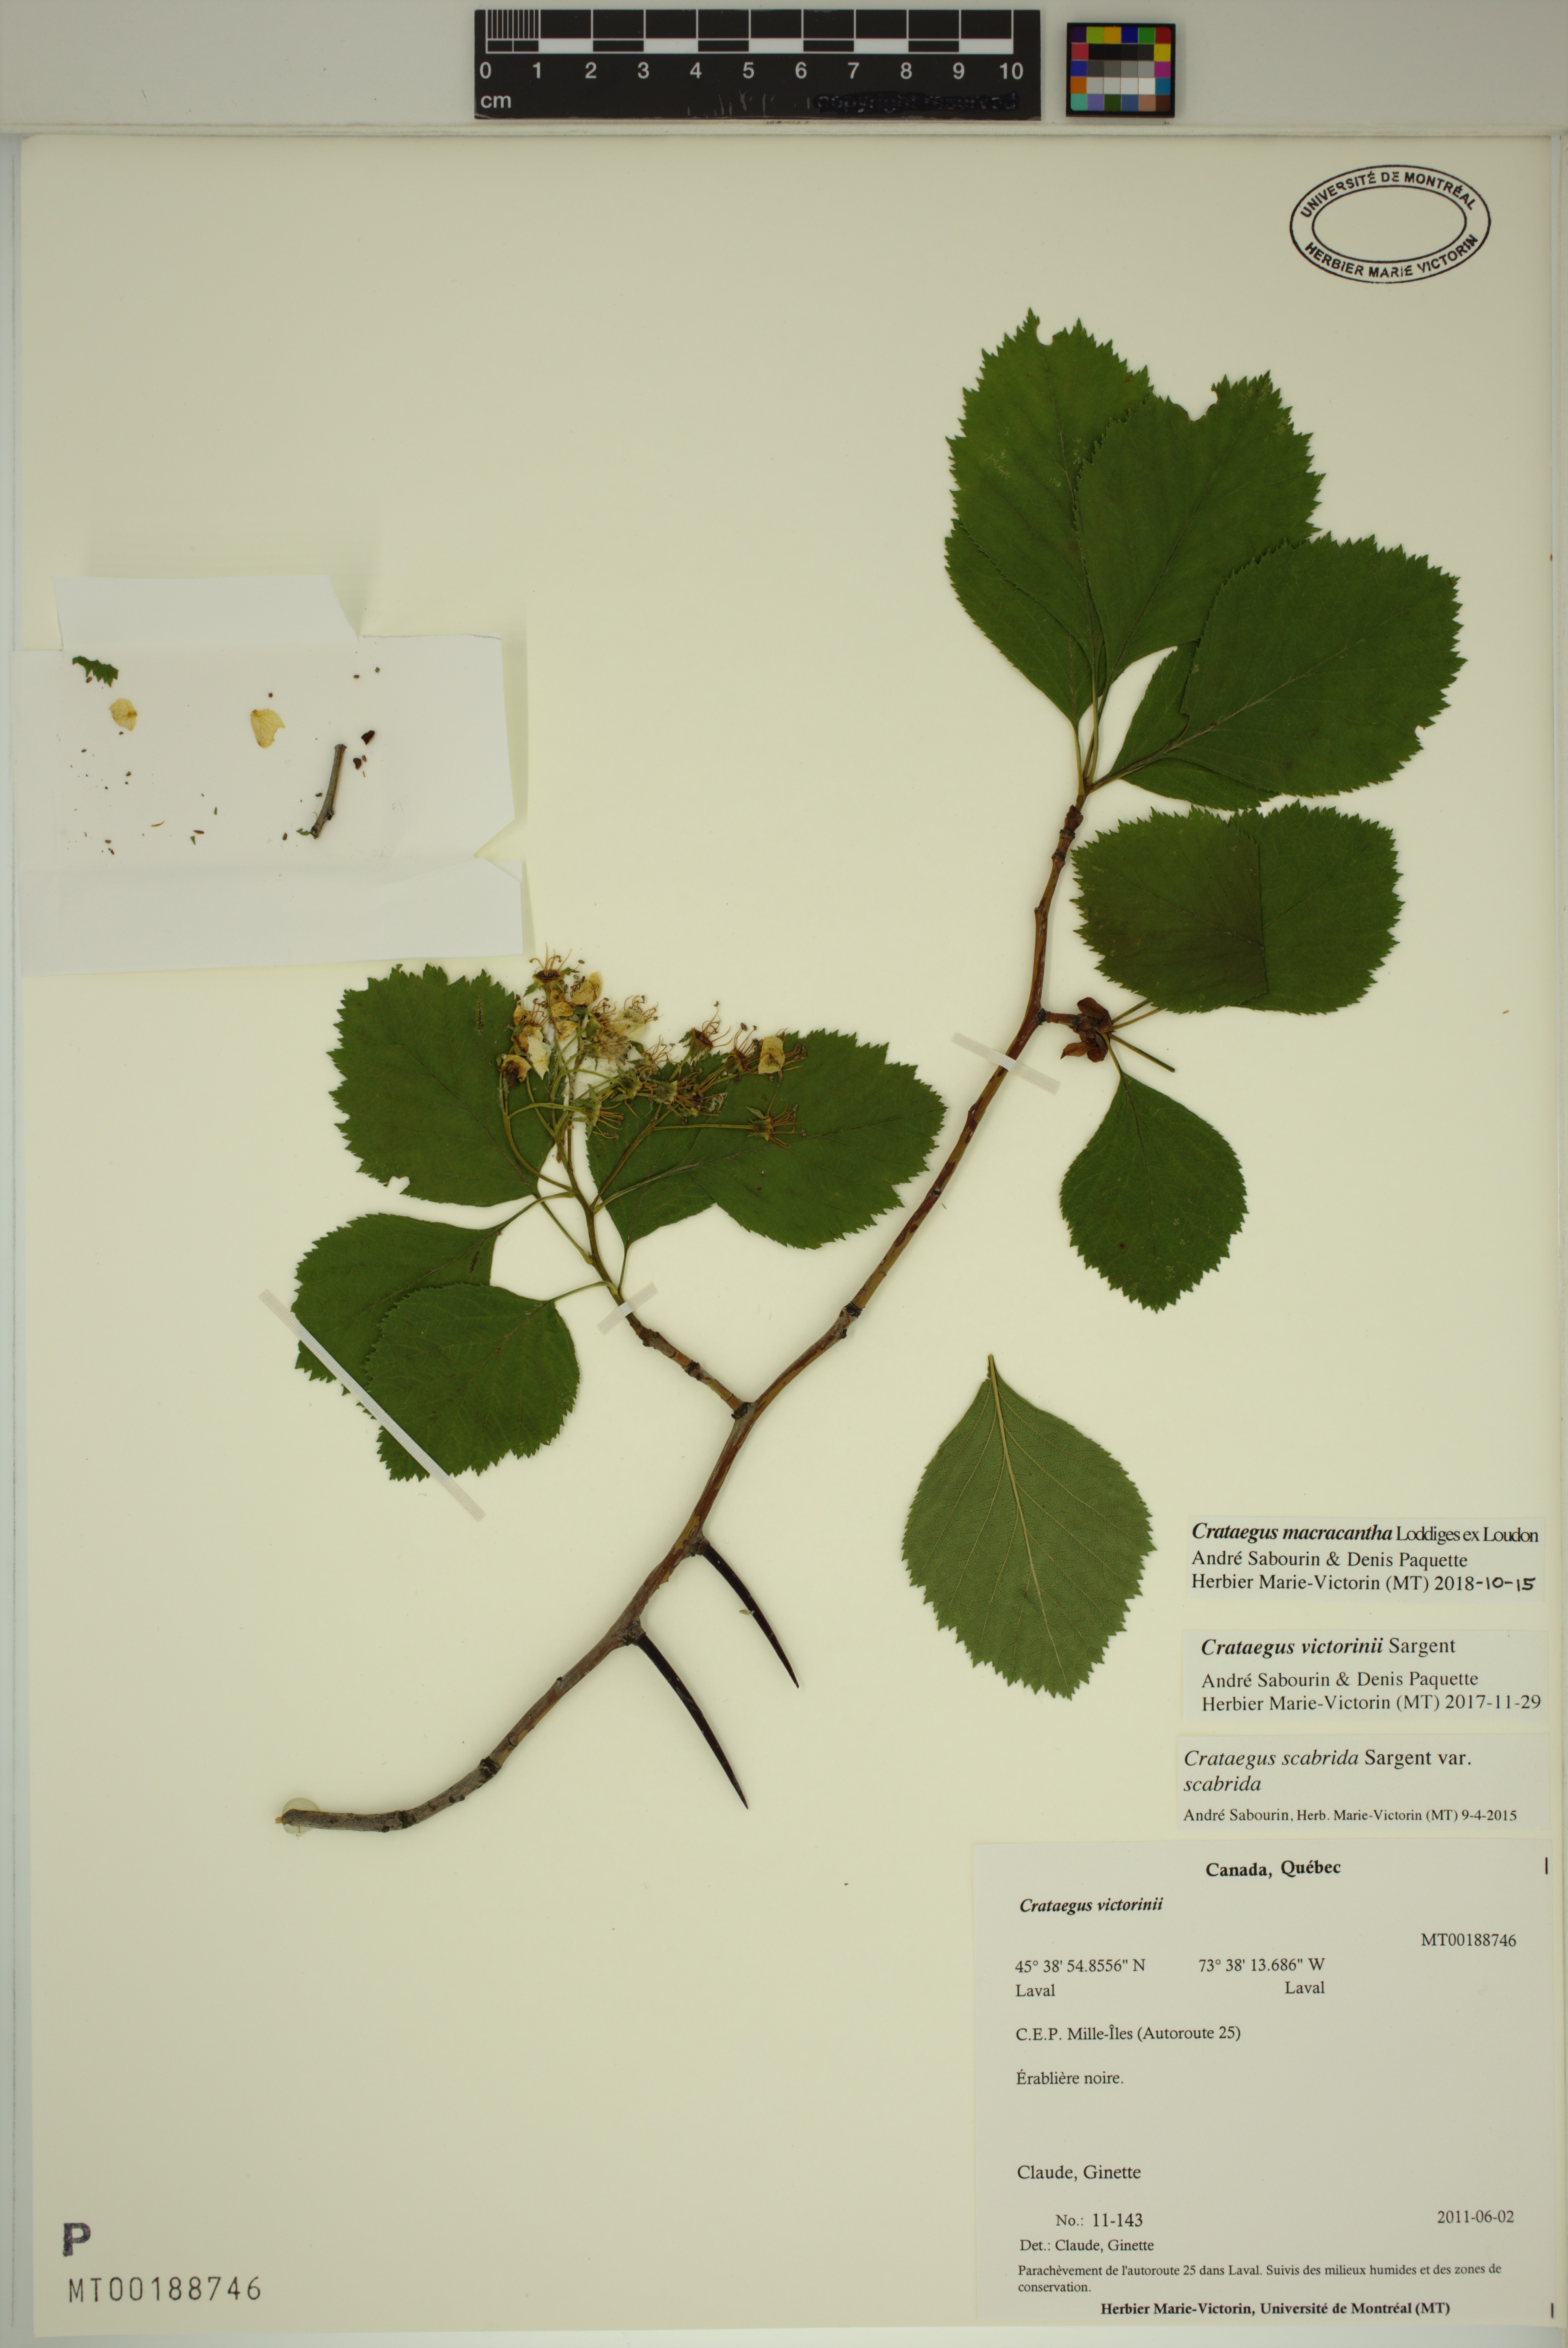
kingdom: Plantae
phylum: Tracheophyta
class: Magnoliopsida
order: Rosales
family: Rosaceae
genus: Crataegus
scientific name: Crataegus macracantha
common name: Large-thorn hawthorn
